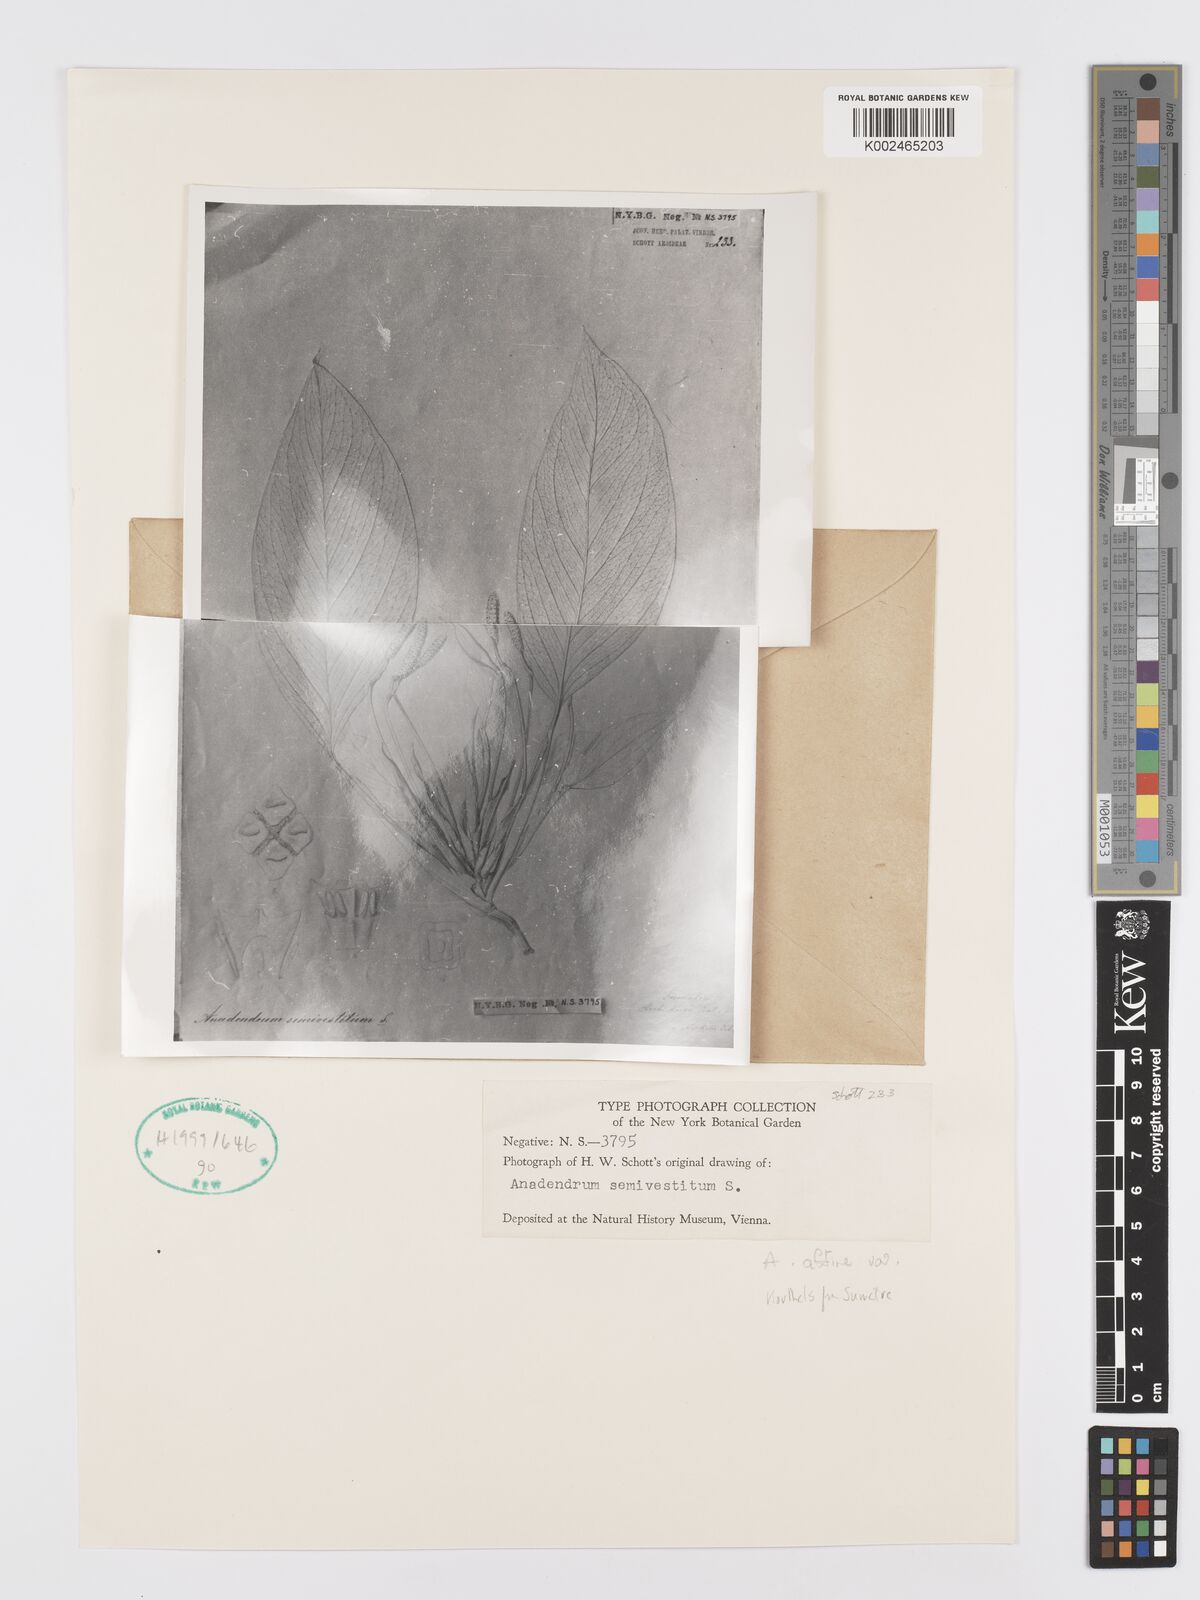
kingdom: Plantae
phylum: Tracheophyta
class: Liliopsida
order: Alismatales
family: Araceae
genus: Anadendrum
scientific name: Anadendrum affine
